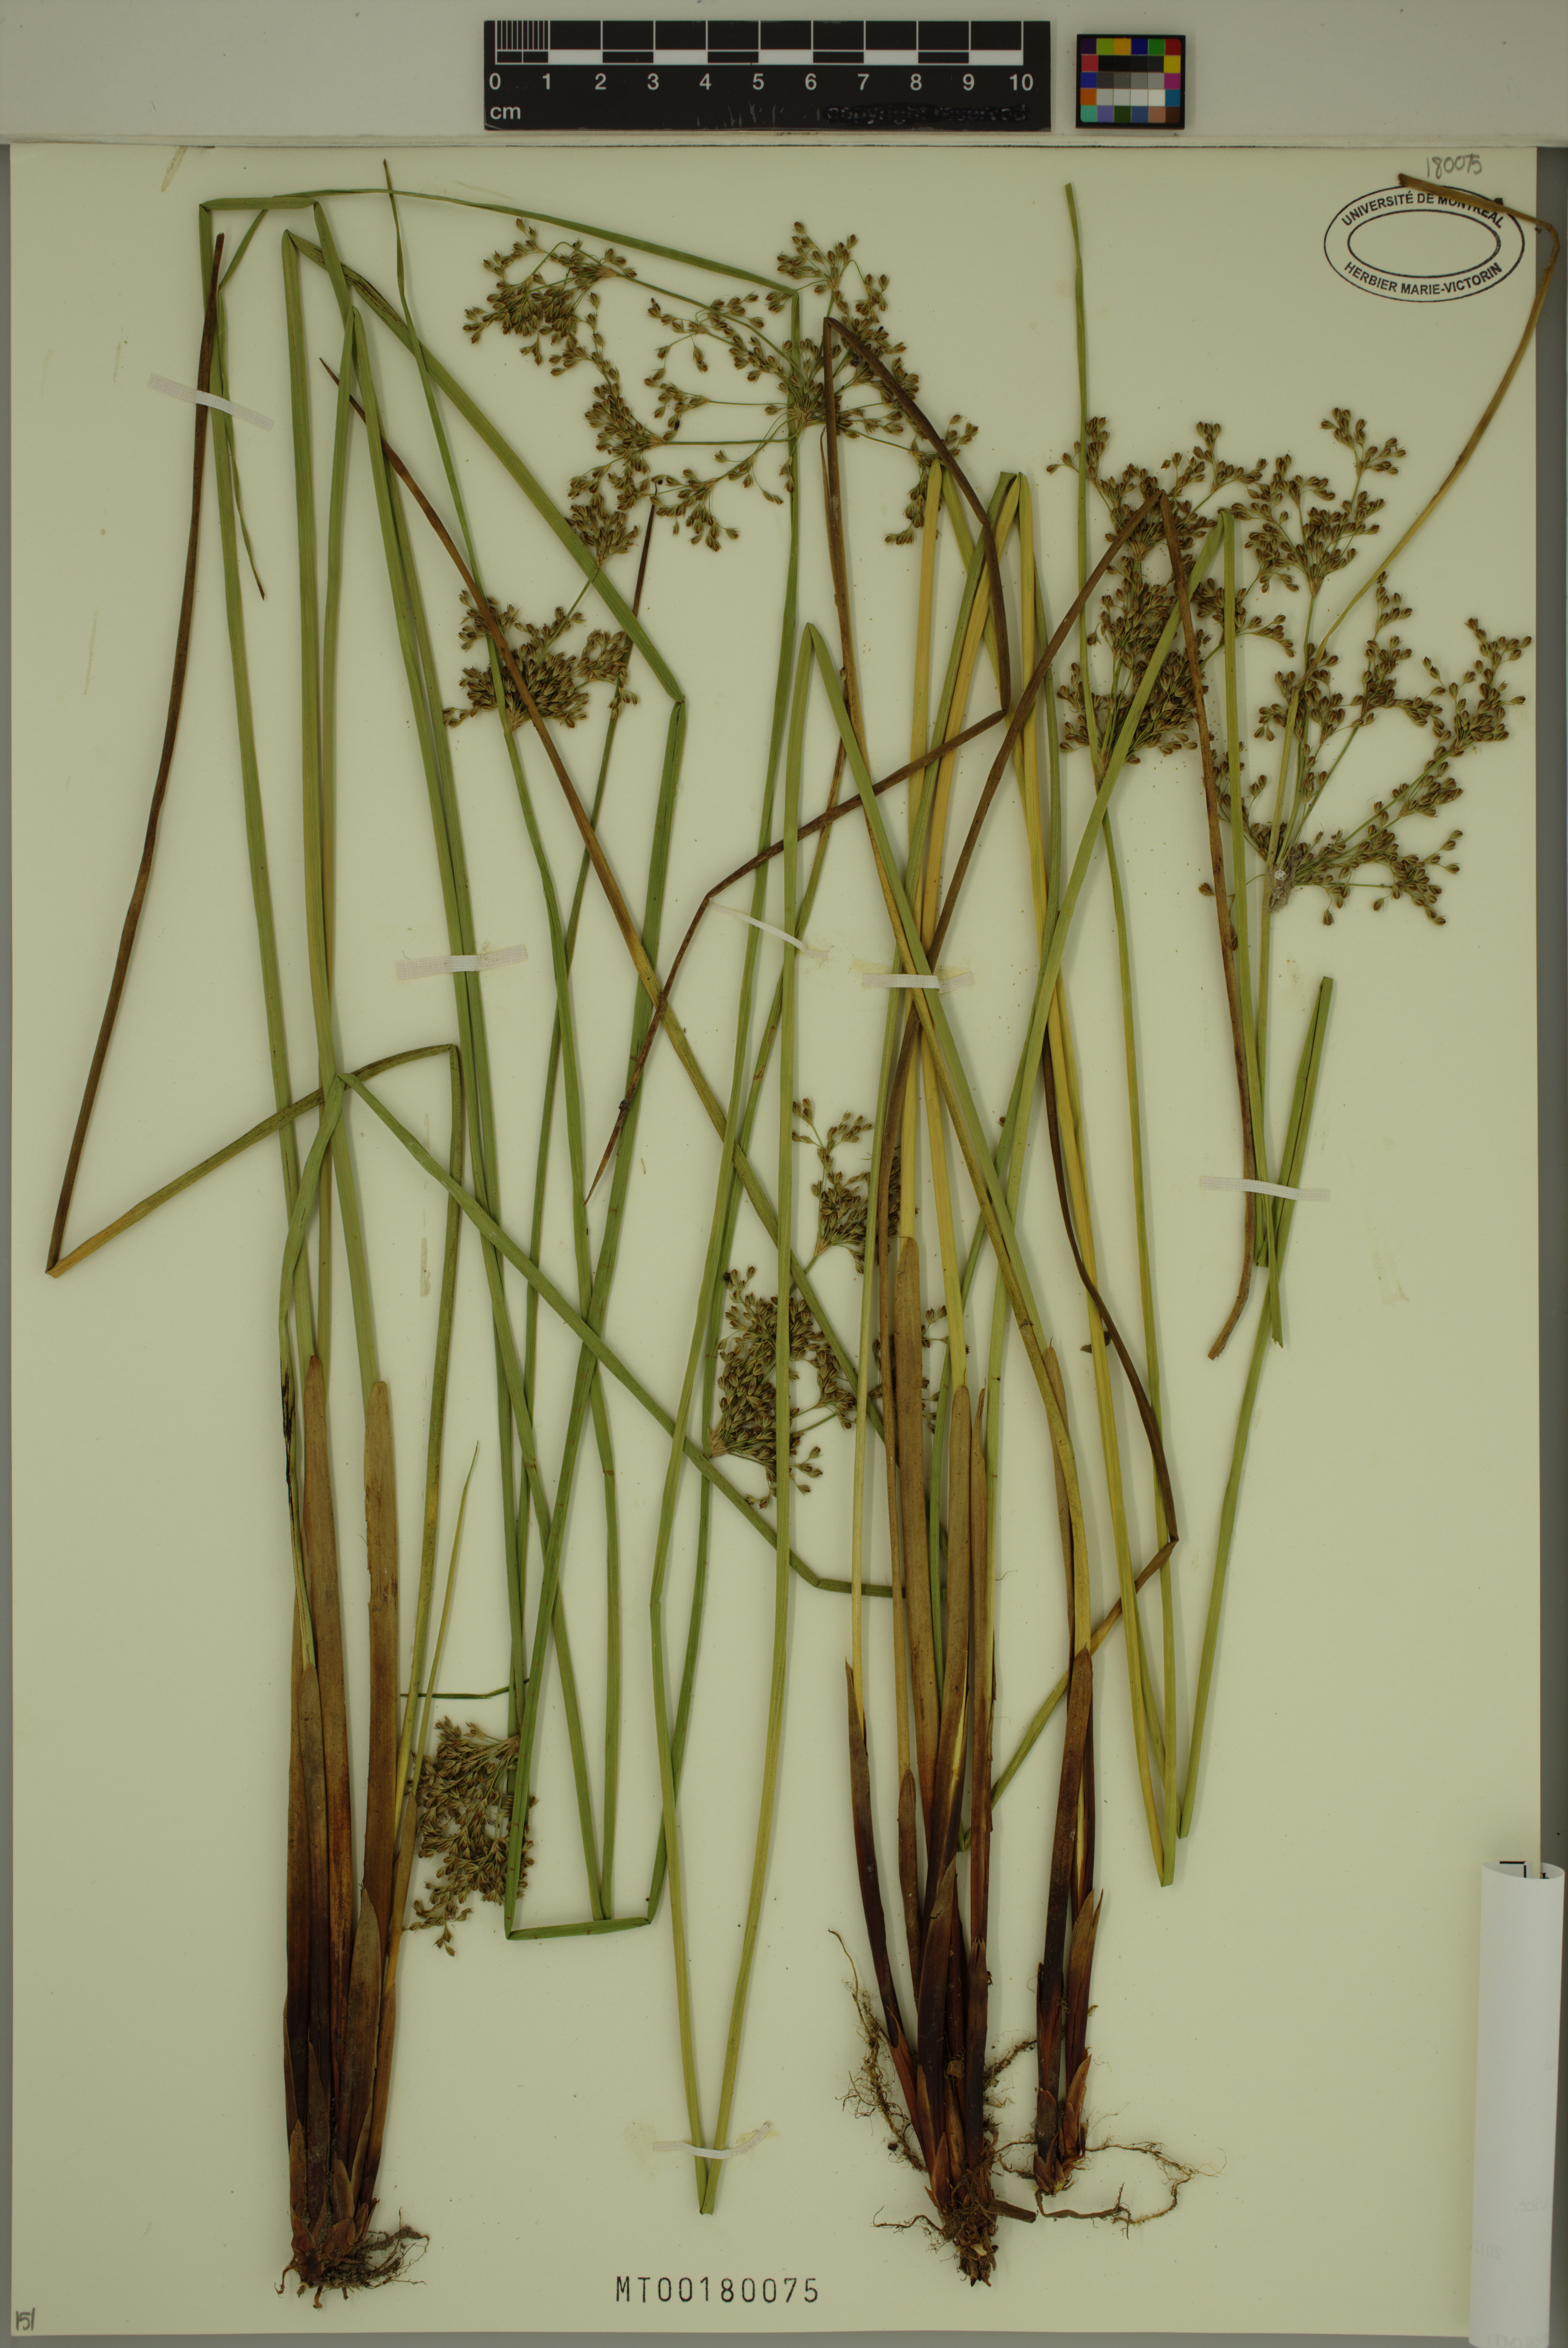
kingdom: Plantae
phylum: Tracheophyta
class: Liliopsida
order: Poales
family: Juncaceae
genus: Juncus
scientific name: Juncus effusus
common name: Soft rush
